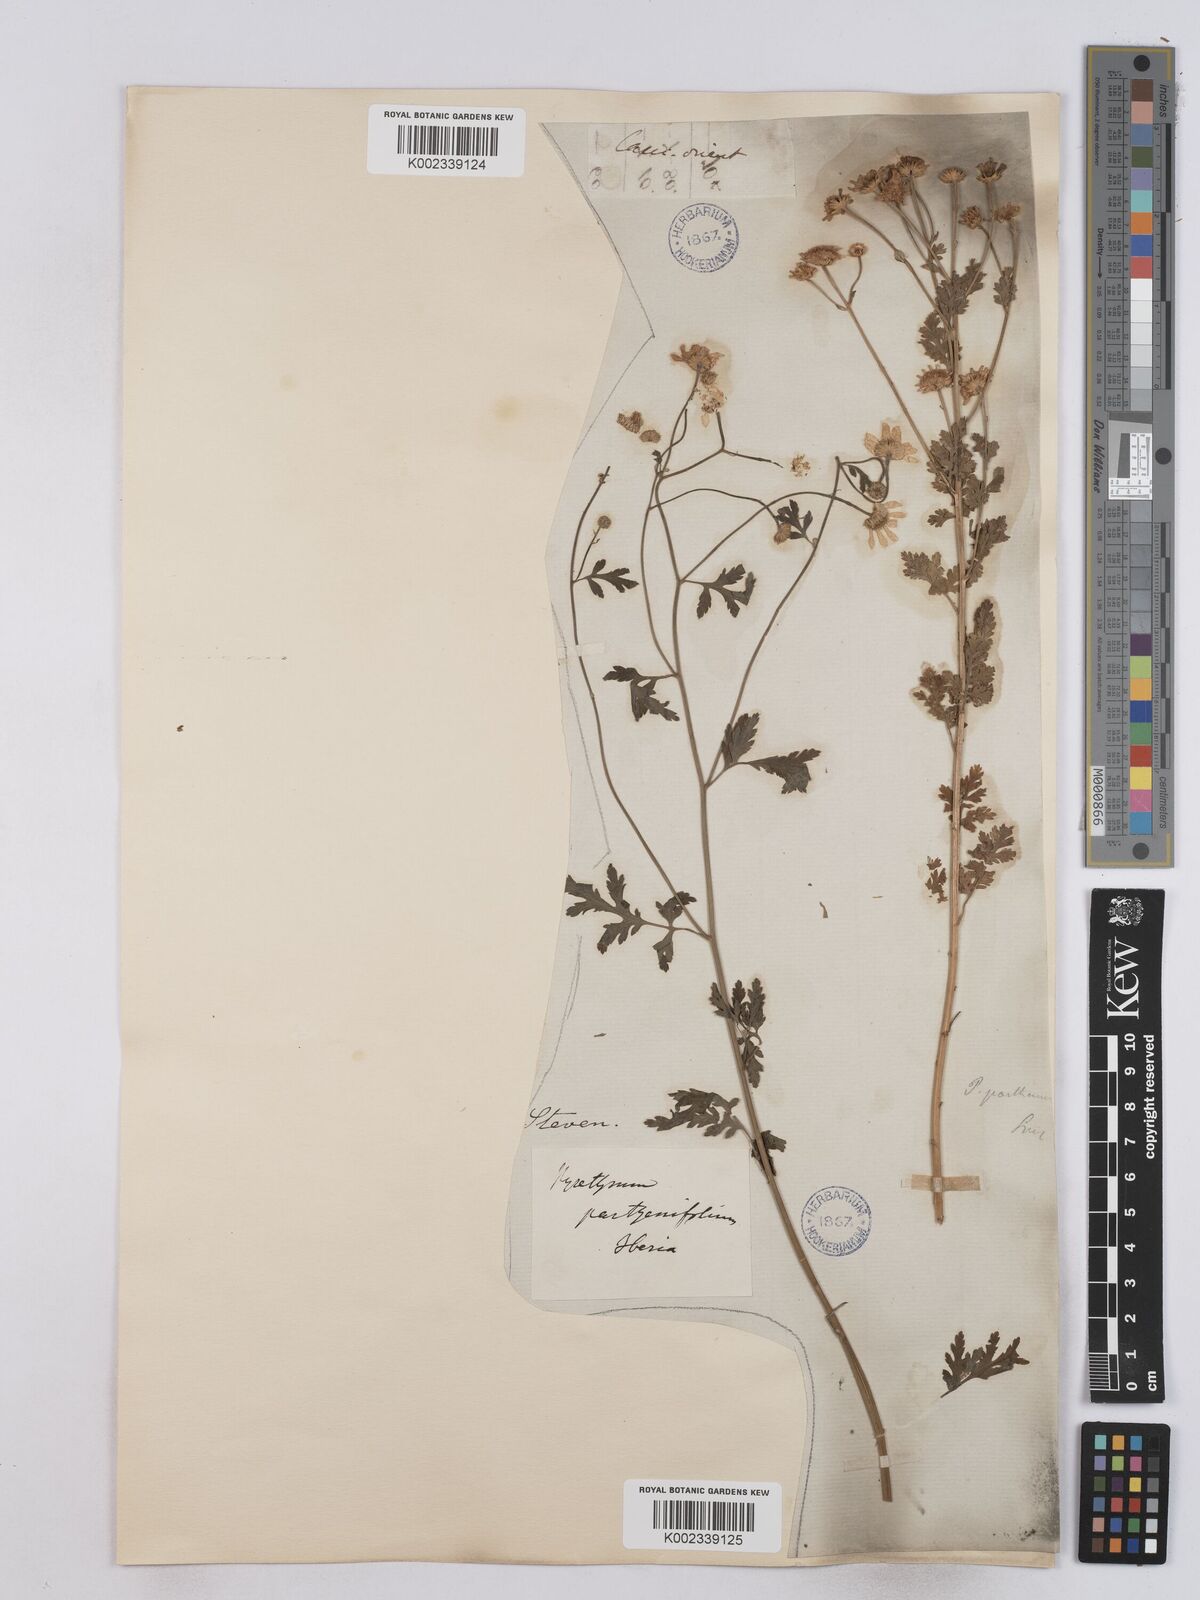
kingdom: Plantae
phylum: Tracheophyta
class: Magnoliopsida
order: Asterales
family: Asteraceae
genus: Tanacetum
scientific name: Tanacetum partheniifolium
